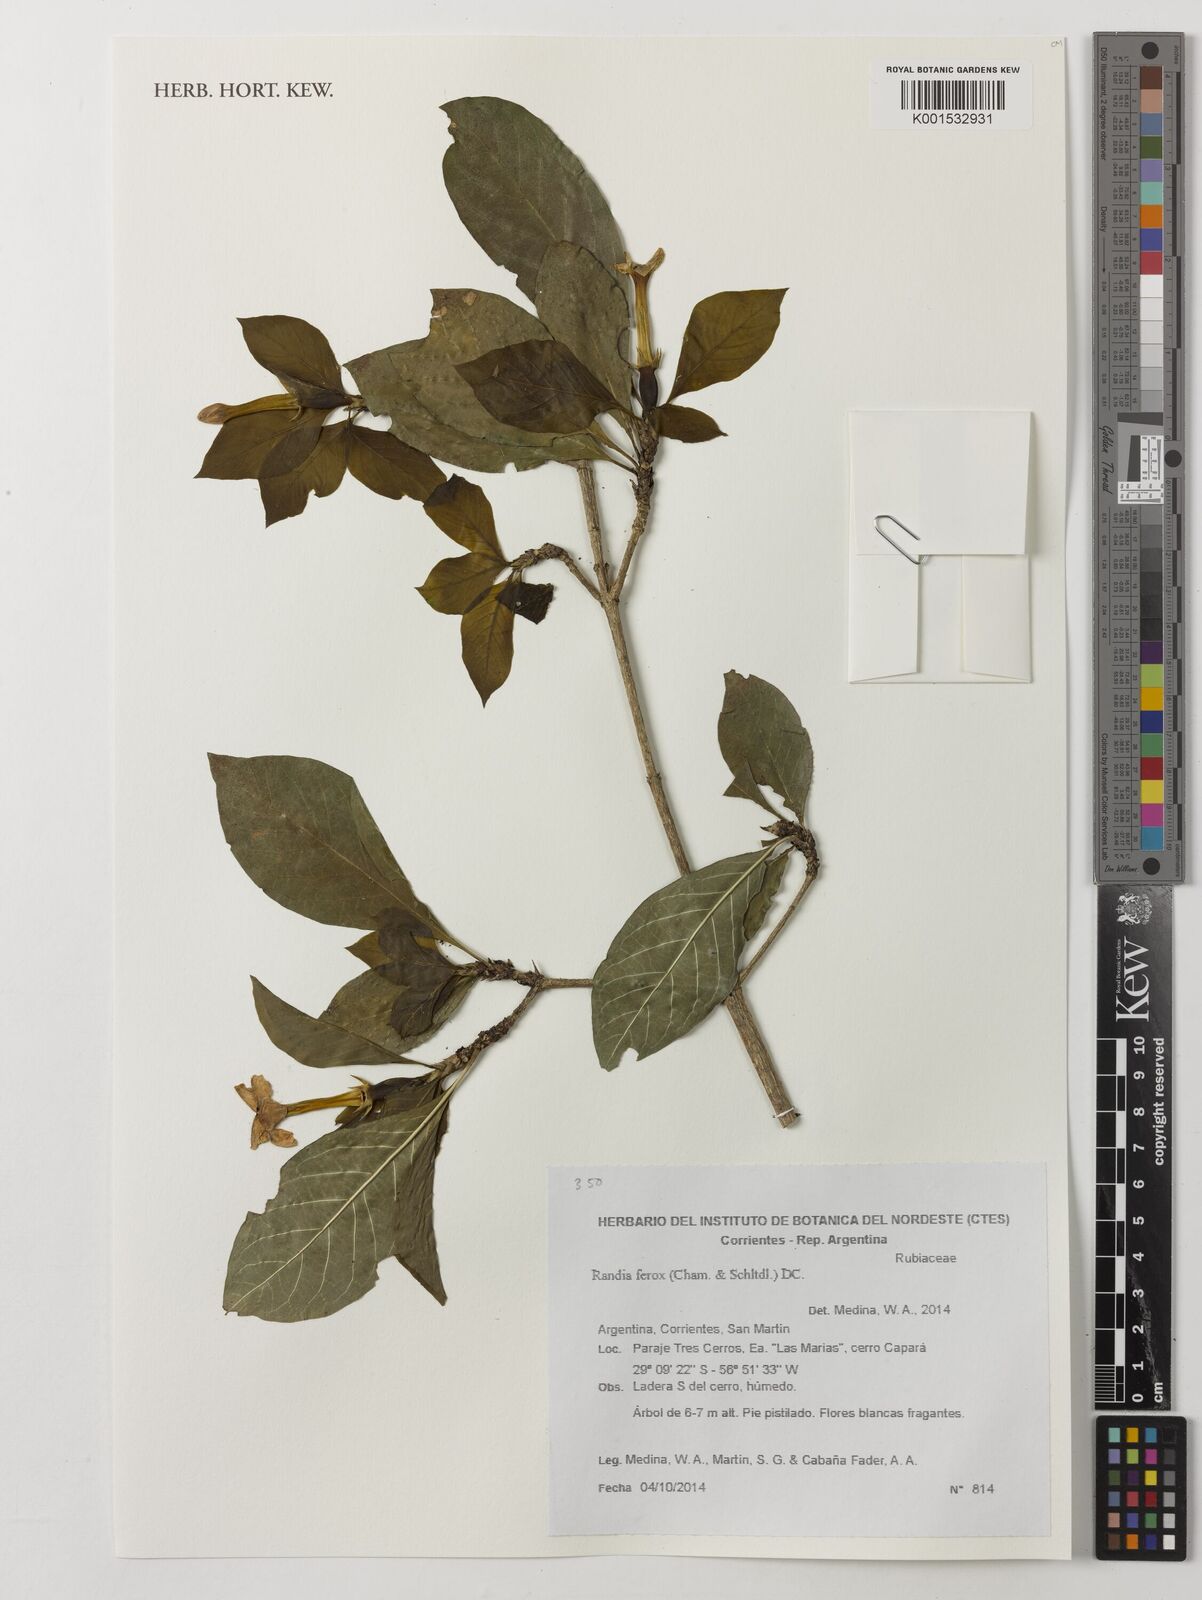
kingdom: Plantae
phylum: Tracheophyta
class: Magnoliopsida
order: Gentianales
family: Rubiaceae
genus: Randia
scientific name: Randia ferox
